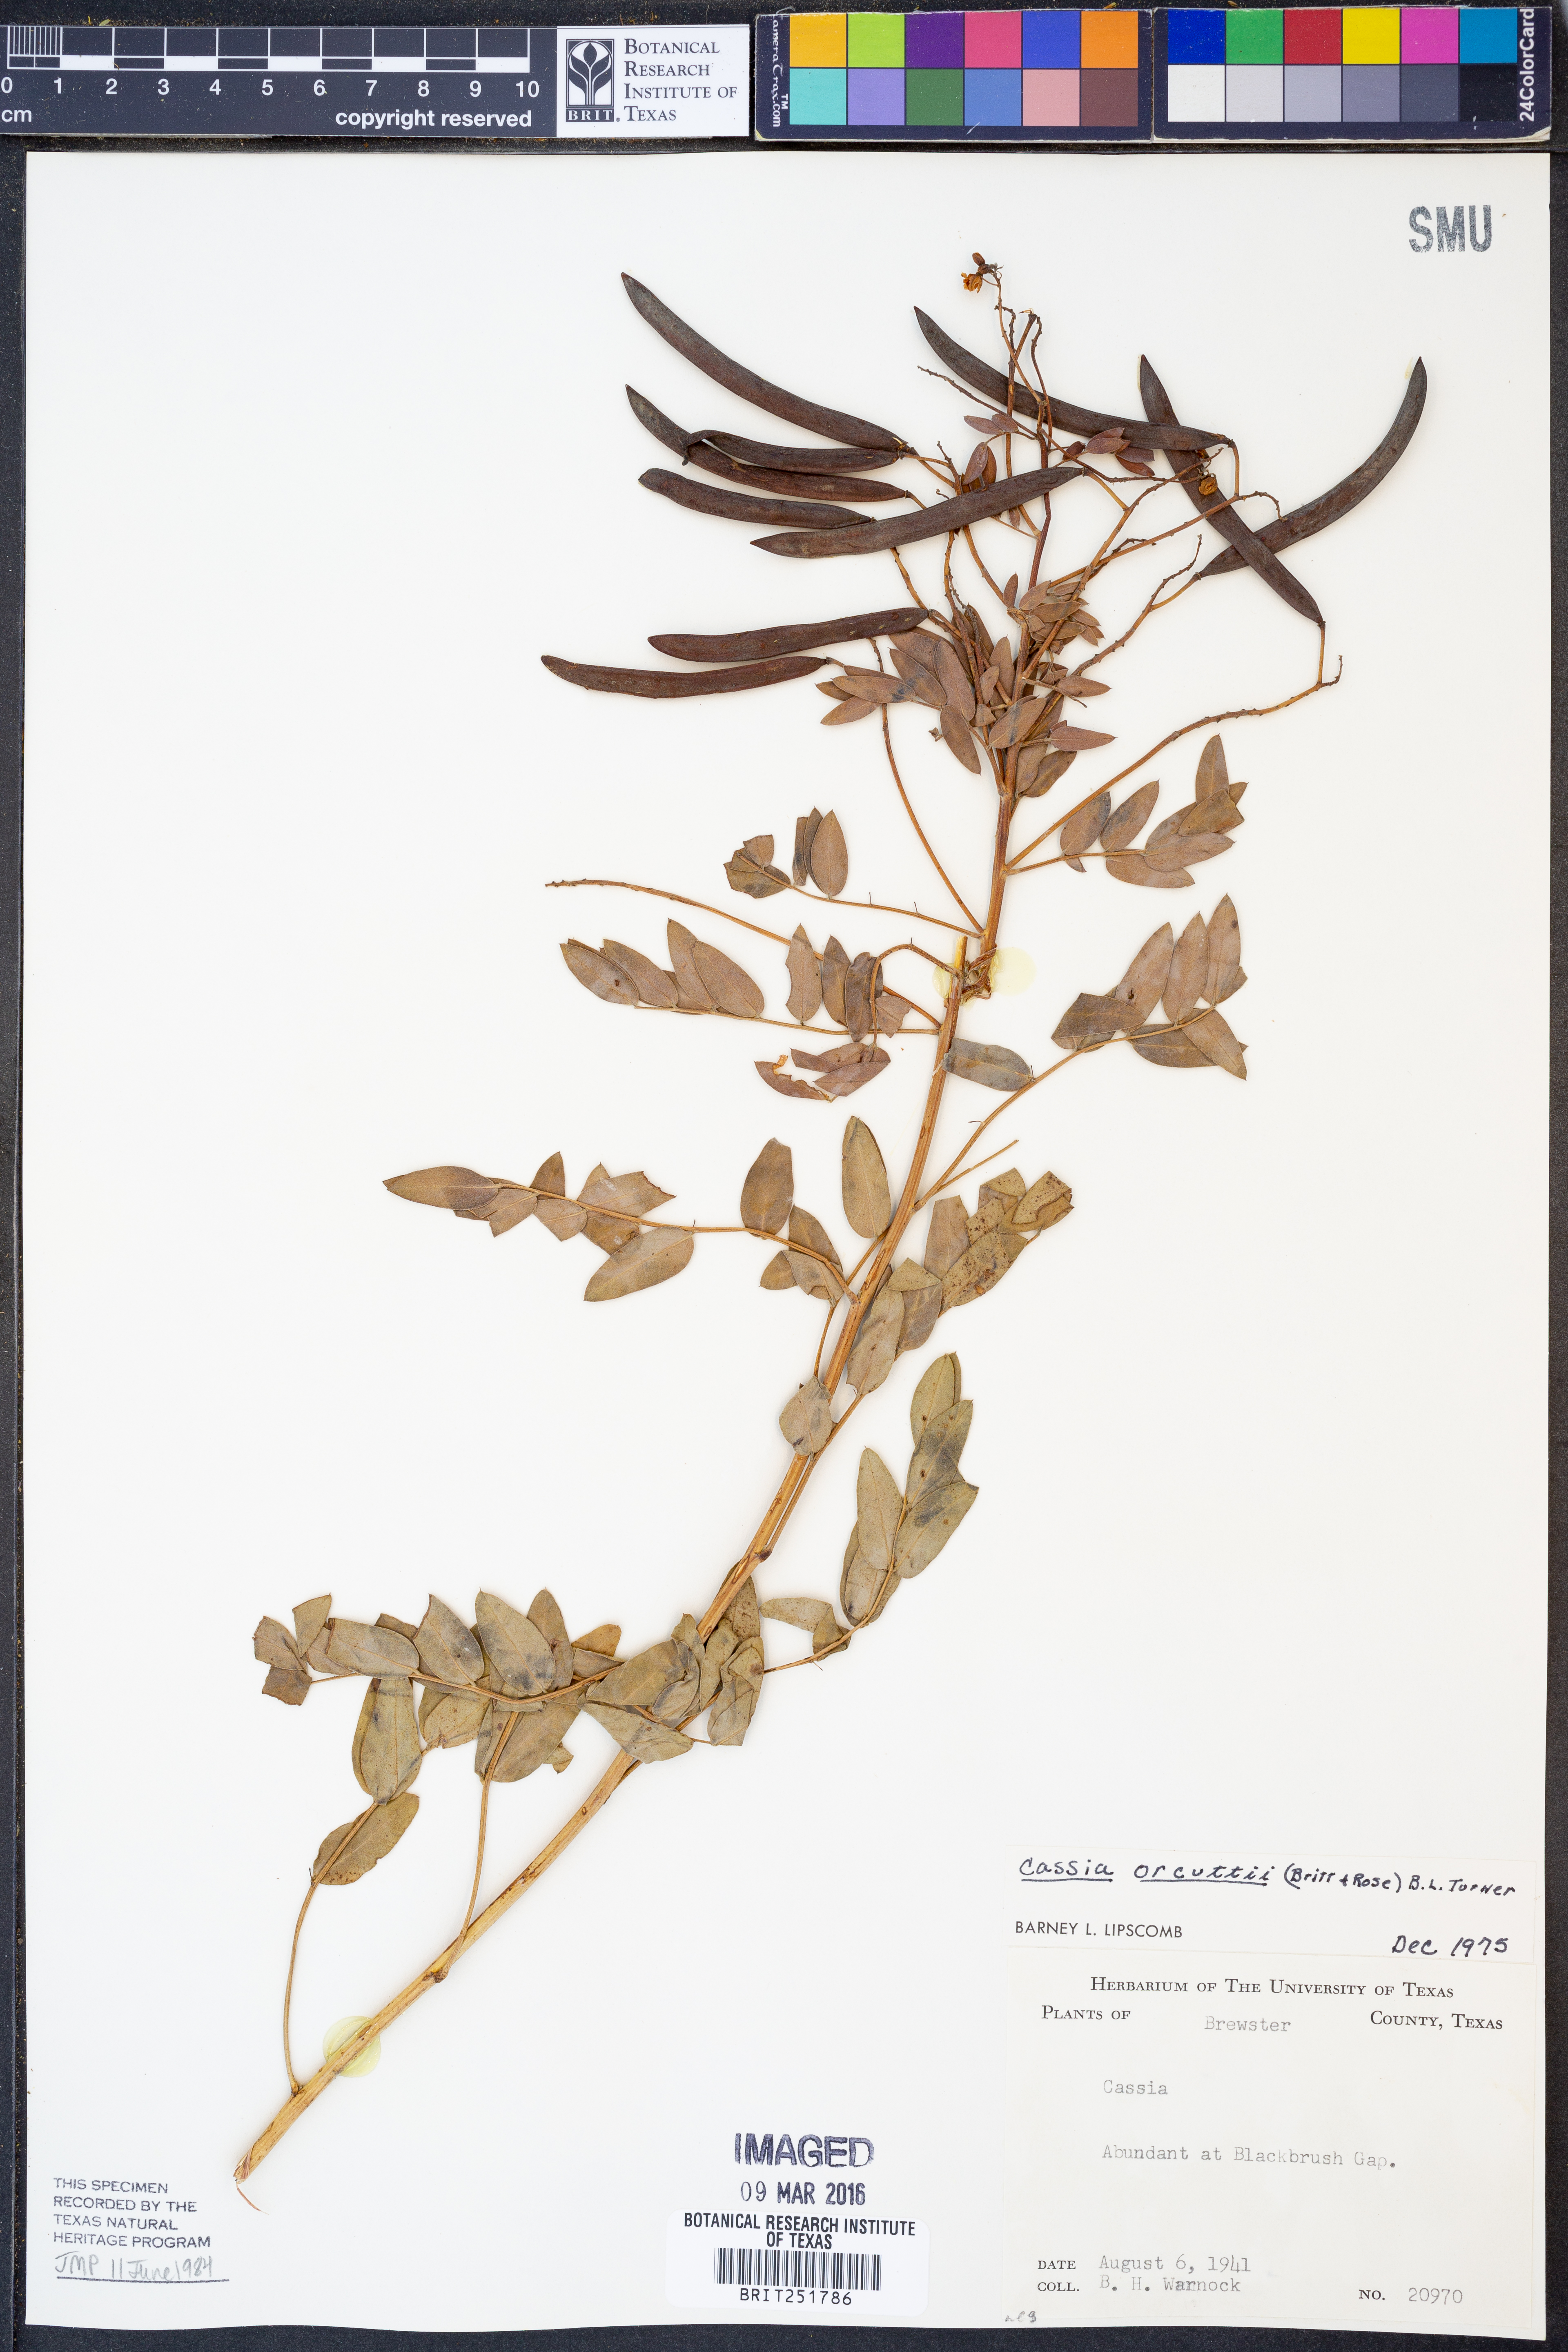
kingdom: Plantae
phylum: Tracheophyta
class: Magnoliopsida
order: Fabales
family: Fabaceae
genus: Senna
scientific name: Senna orcuttii
